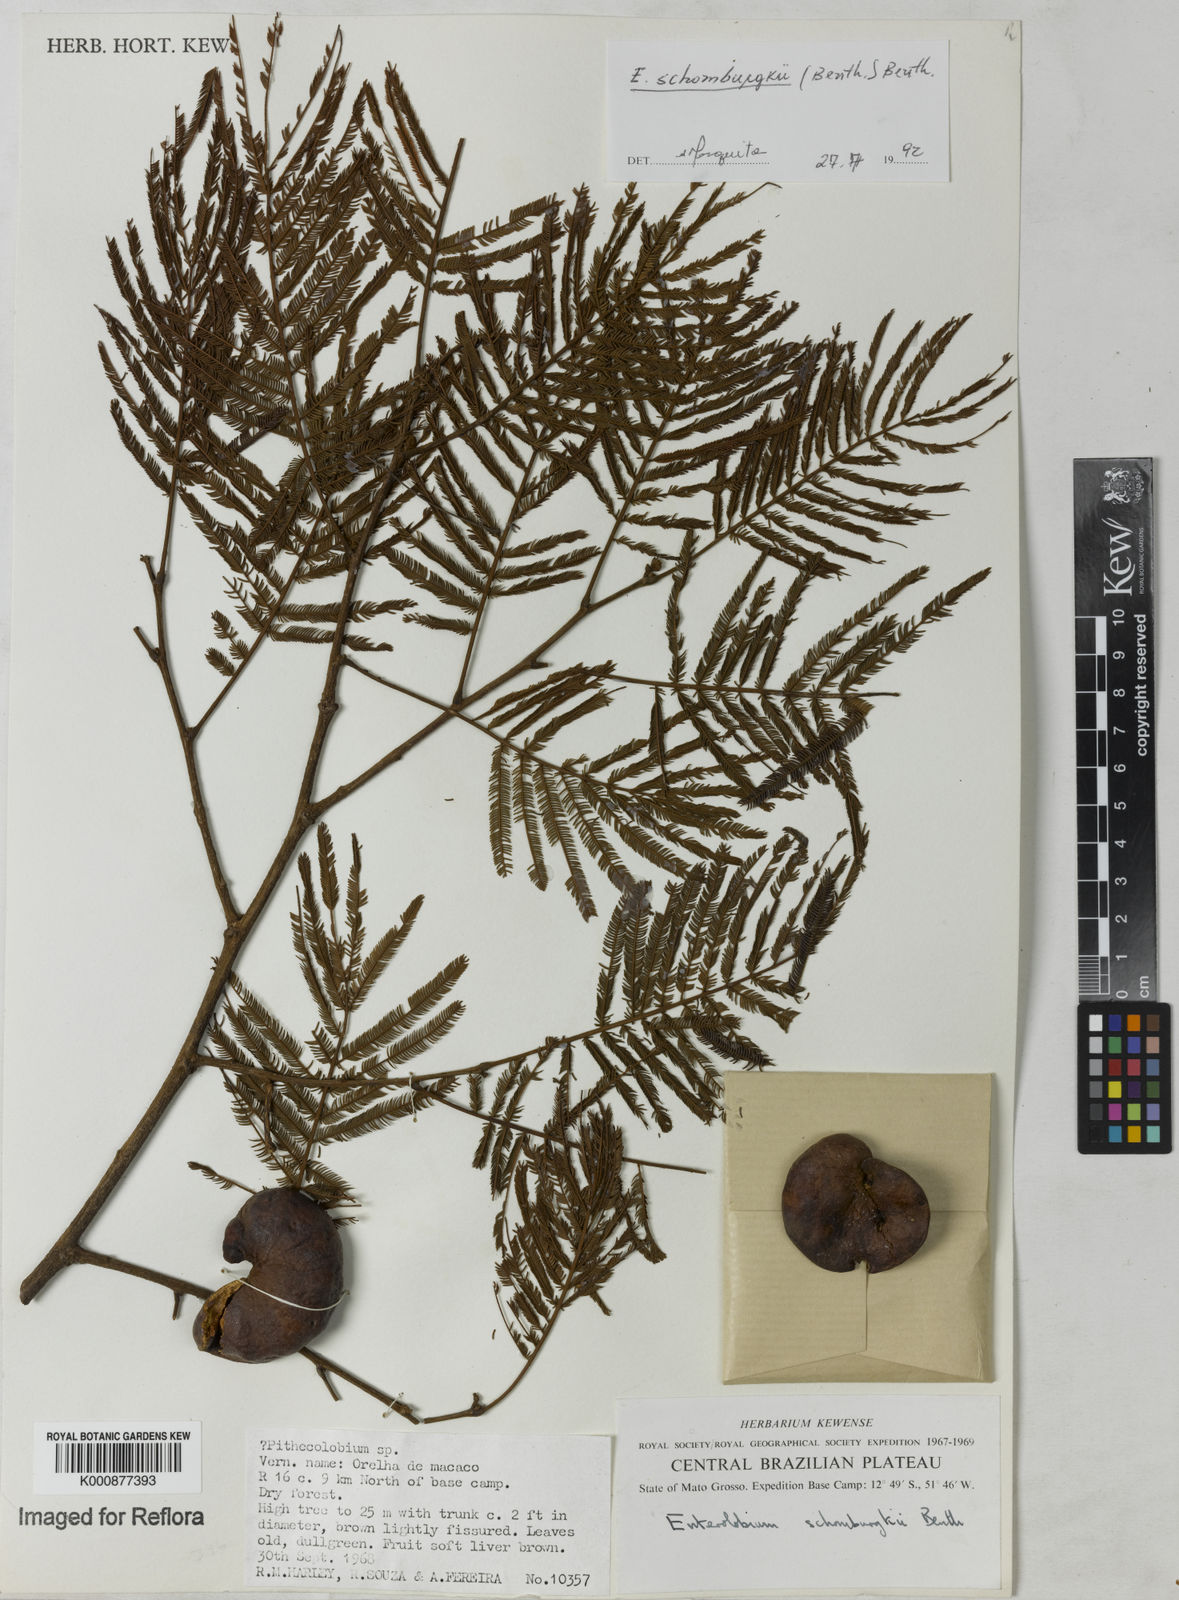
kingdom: Plantae
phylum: Tracheophyta
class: Magnoliopsida
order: Fabales
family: Fabaceae
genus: Enterolobium
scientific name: Enterolobium schomburgkii
